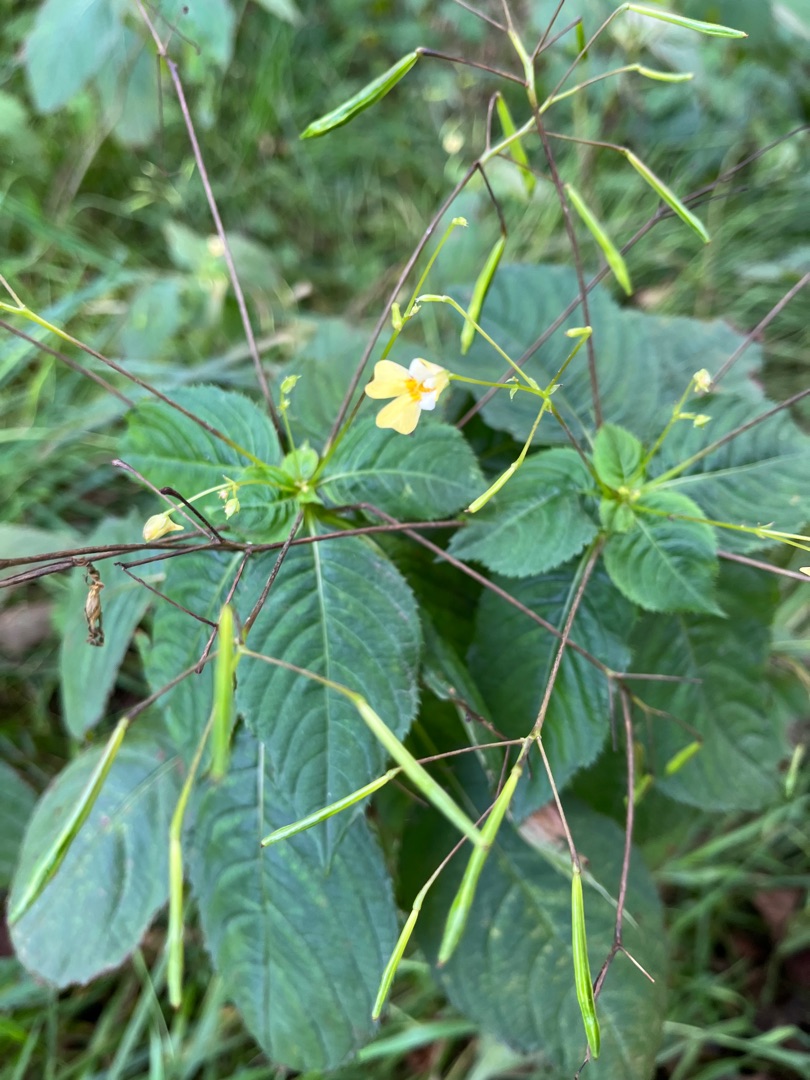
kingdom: Plantae
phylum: Tracheophyta
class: Magnoliopsida
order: Ericales
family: Balsaminaceae
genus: Impatiens
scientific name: Impatiens parviflora
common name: Småblomstret balsamin
